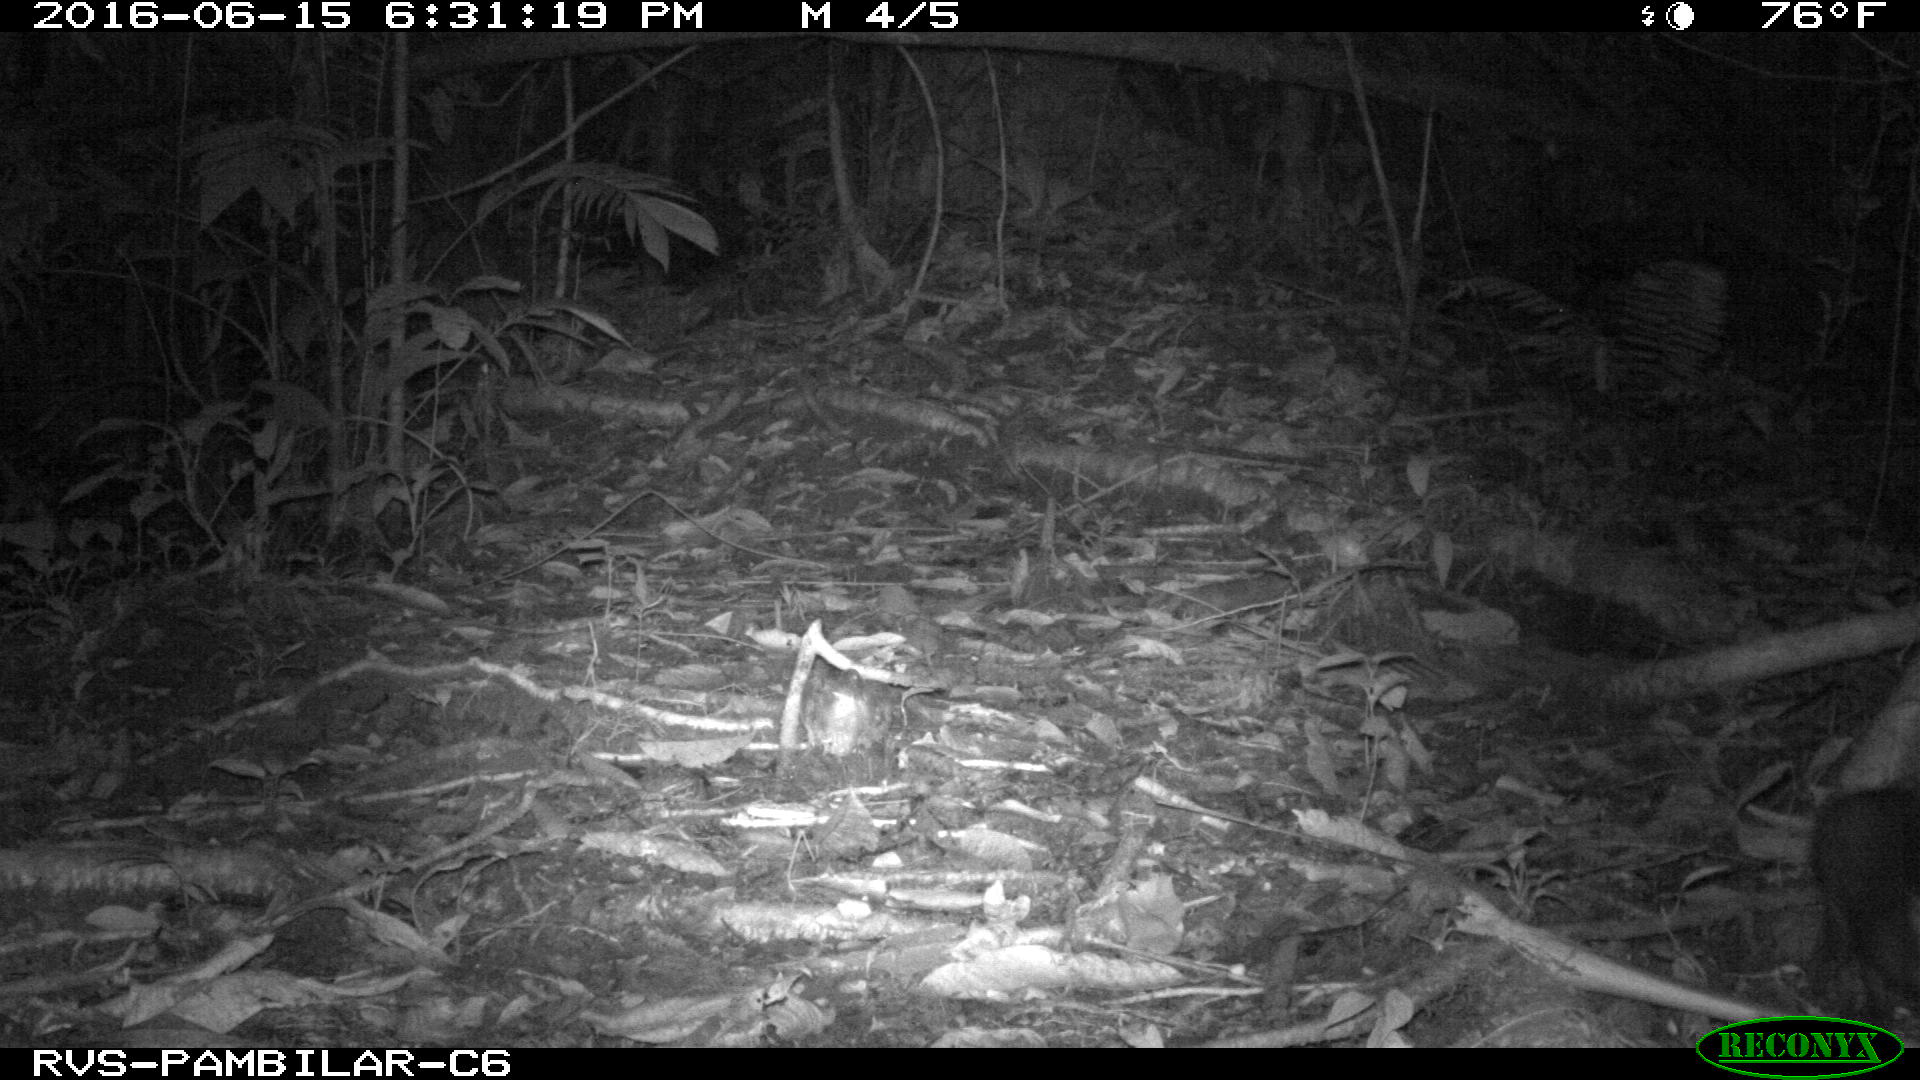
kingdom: Animalia
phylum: Chordata
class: Mammalia
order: Rodentia
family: Dasyproctidae
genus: Dasyprocta
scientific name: Dasyprocta punctata
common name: Central american agouti
